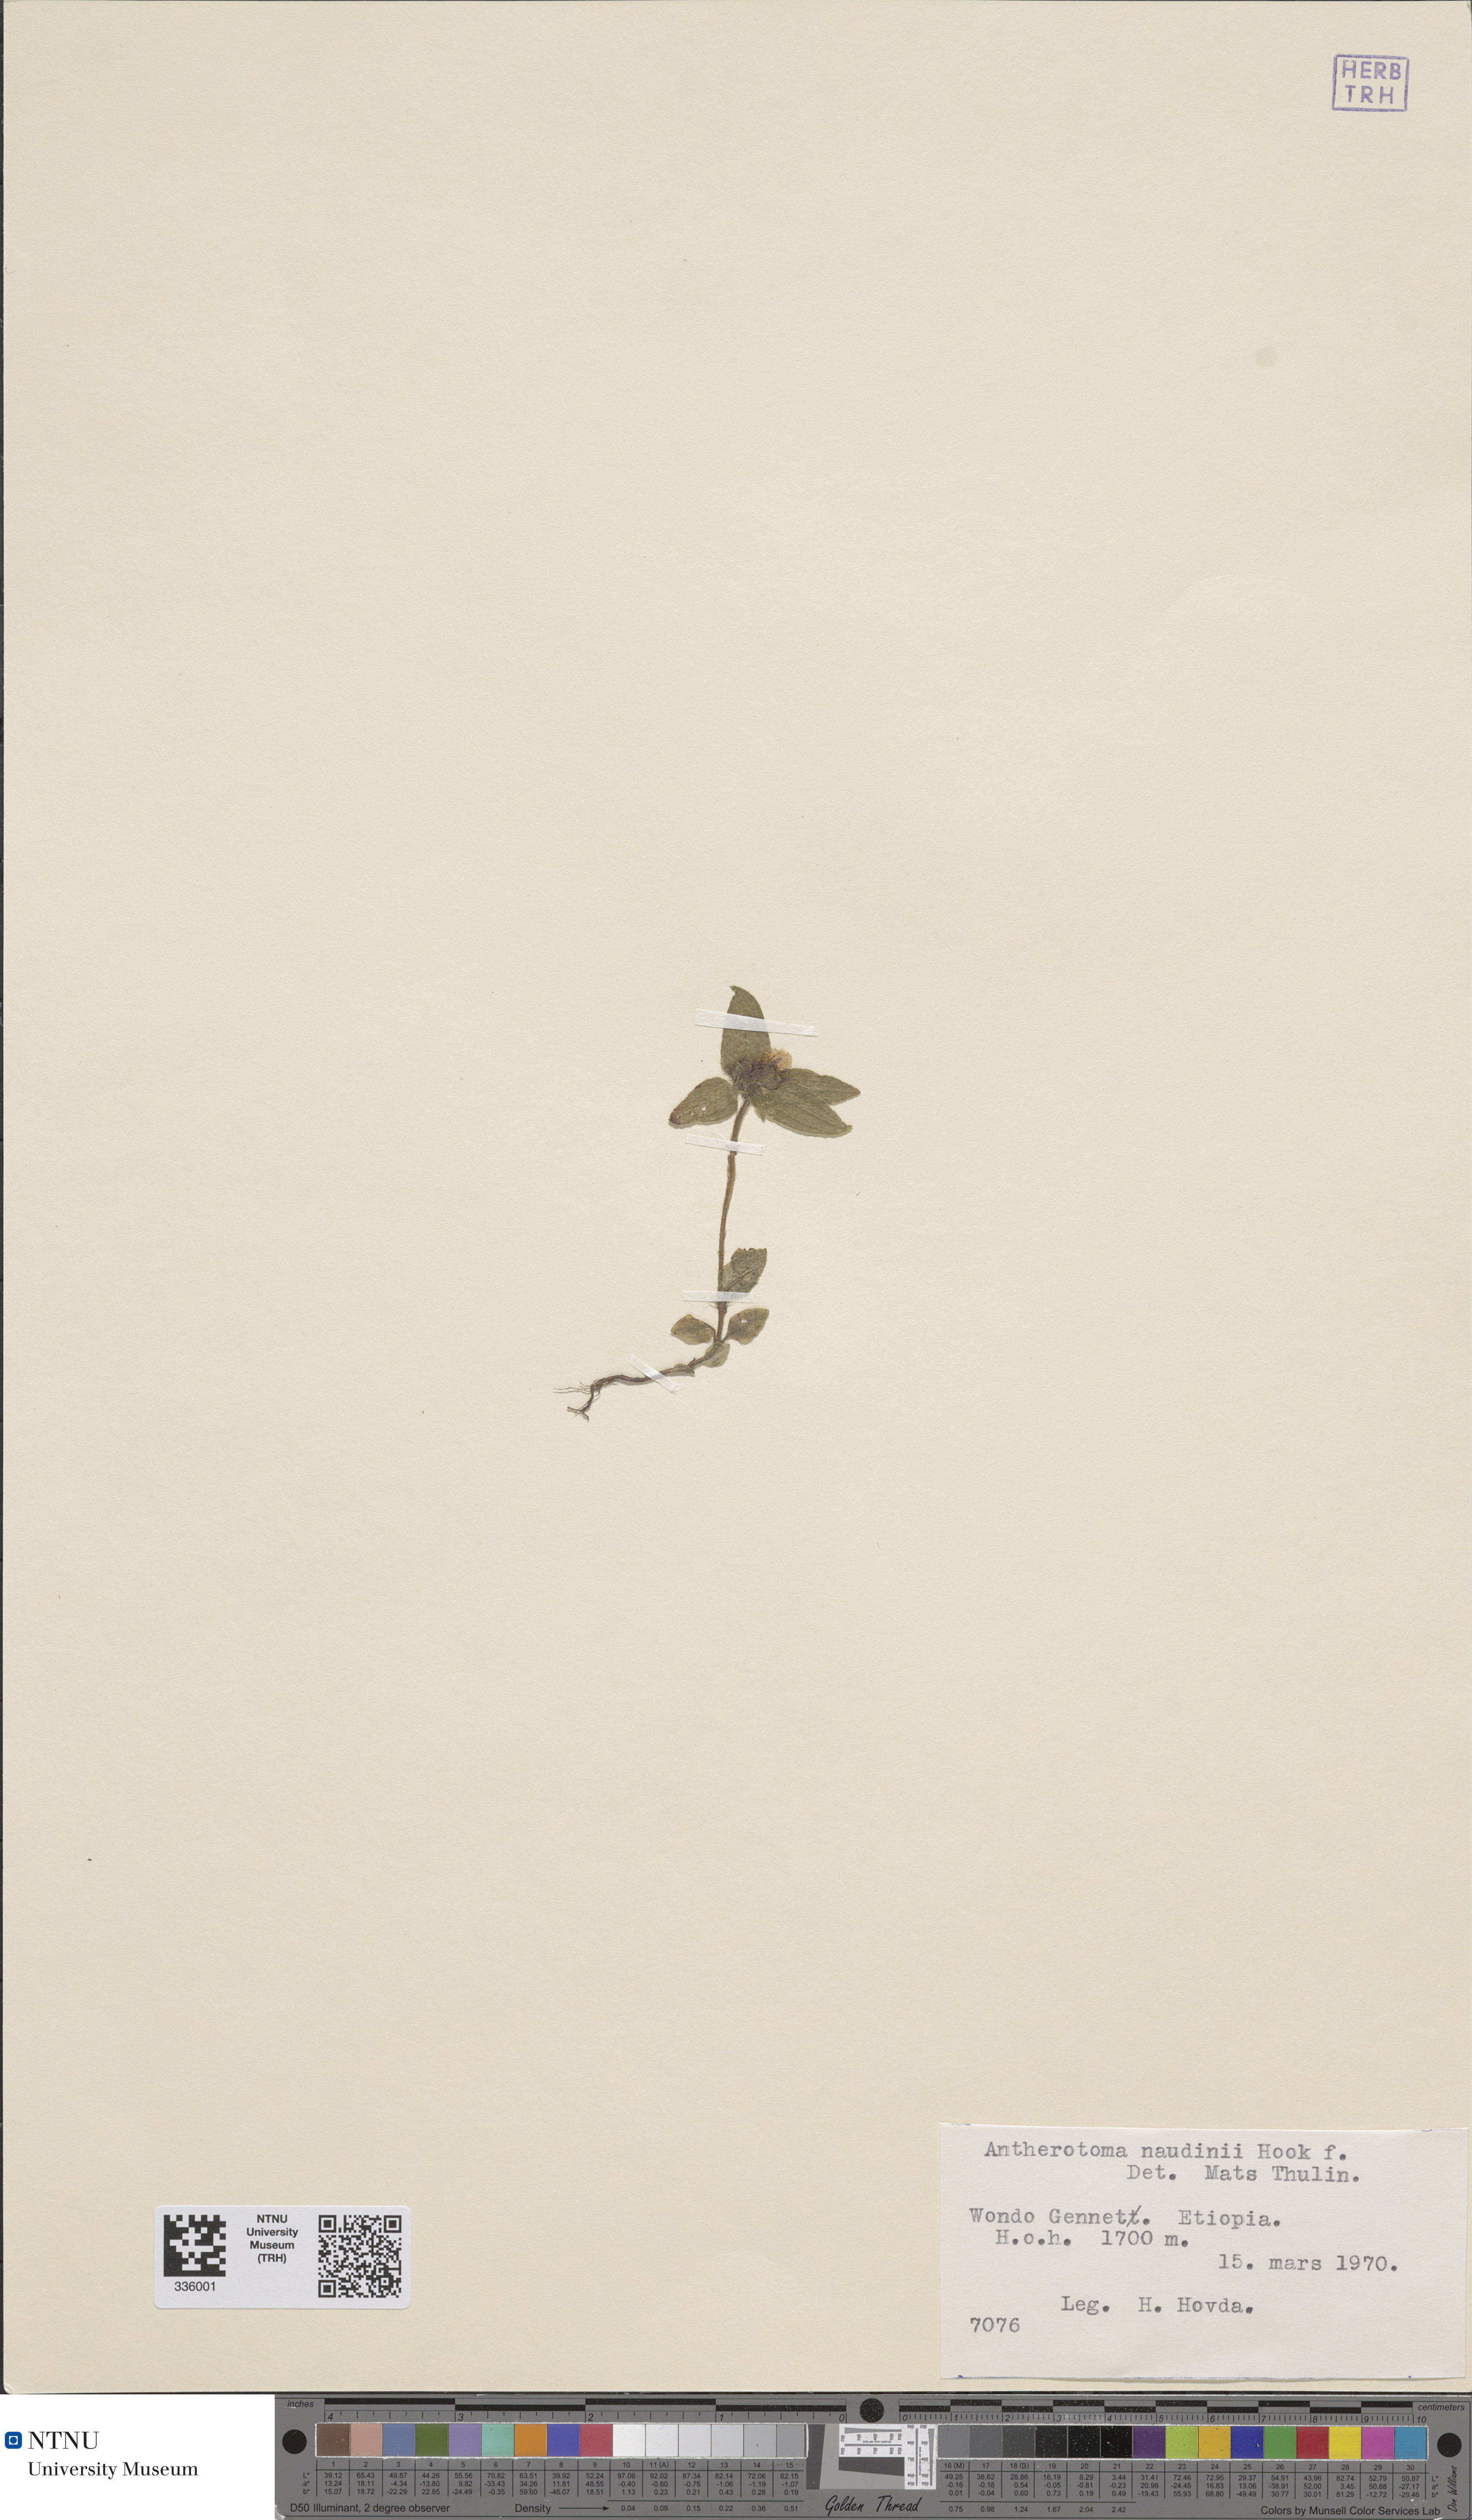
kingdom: Plantae
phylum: Tracheophyta
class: Magnoliopsida
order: Myrtales
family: Melastomataceae
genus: Antherotoma
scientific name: Antherotoma naudinii
